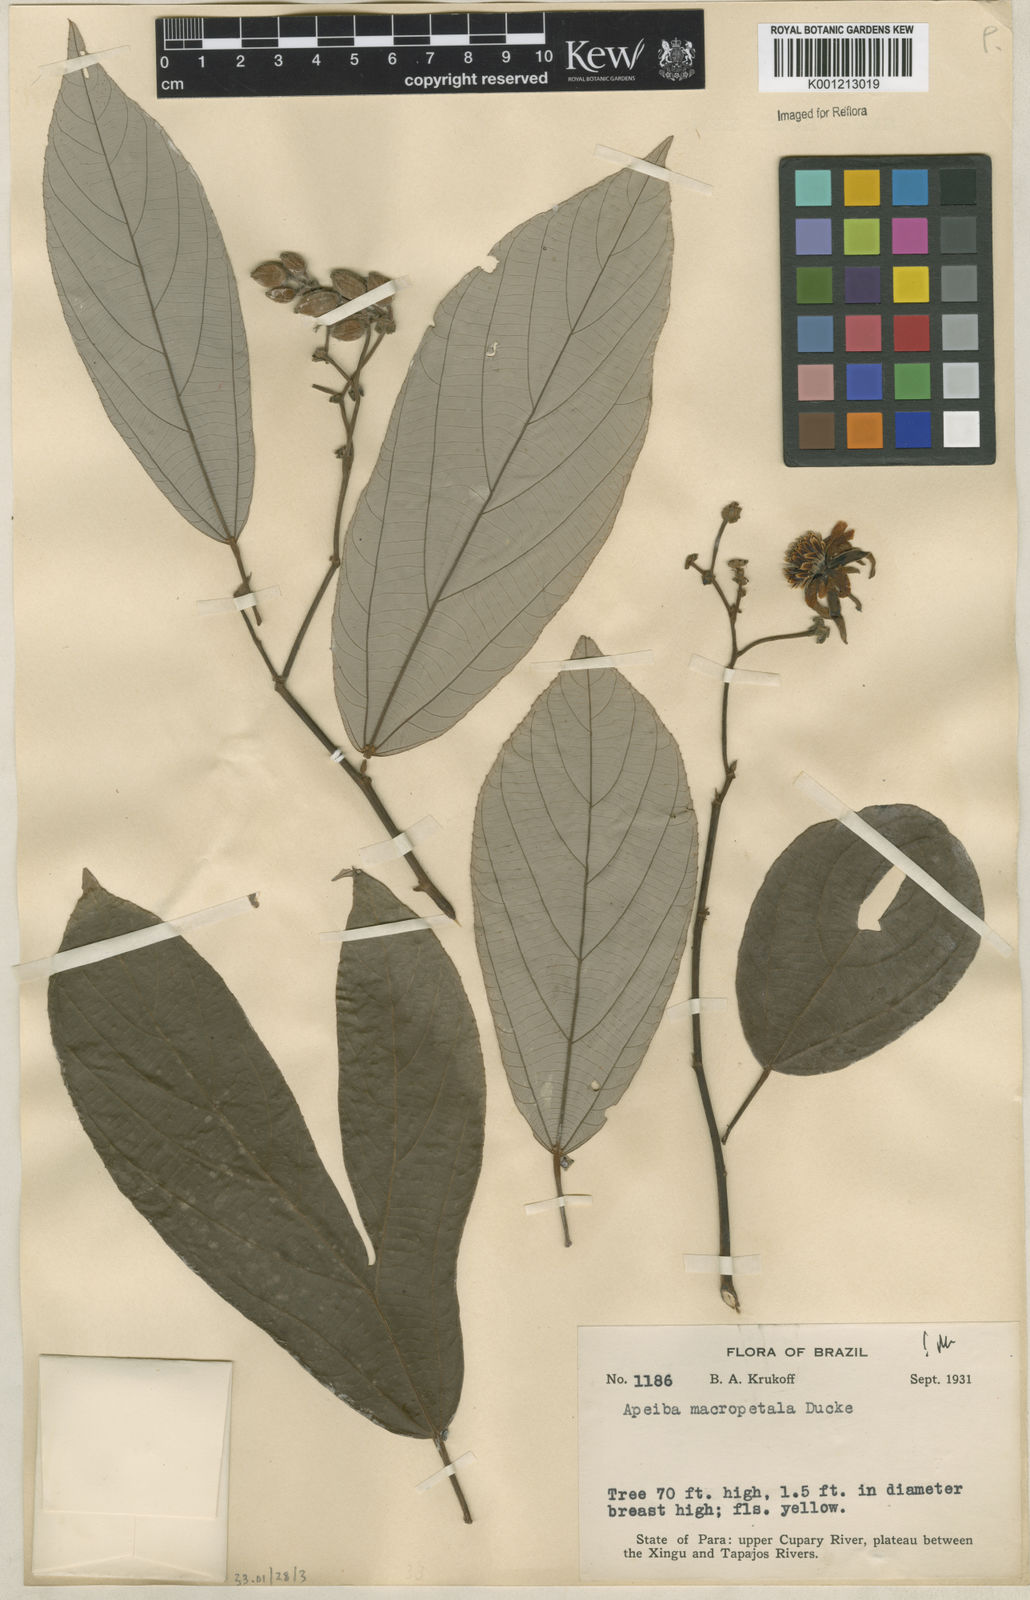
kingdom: Plantae
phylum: Tracheophyta
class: Magnoliopsida
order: Malvales
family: Malvaceae
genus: Apeiba
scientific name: Apeiba
